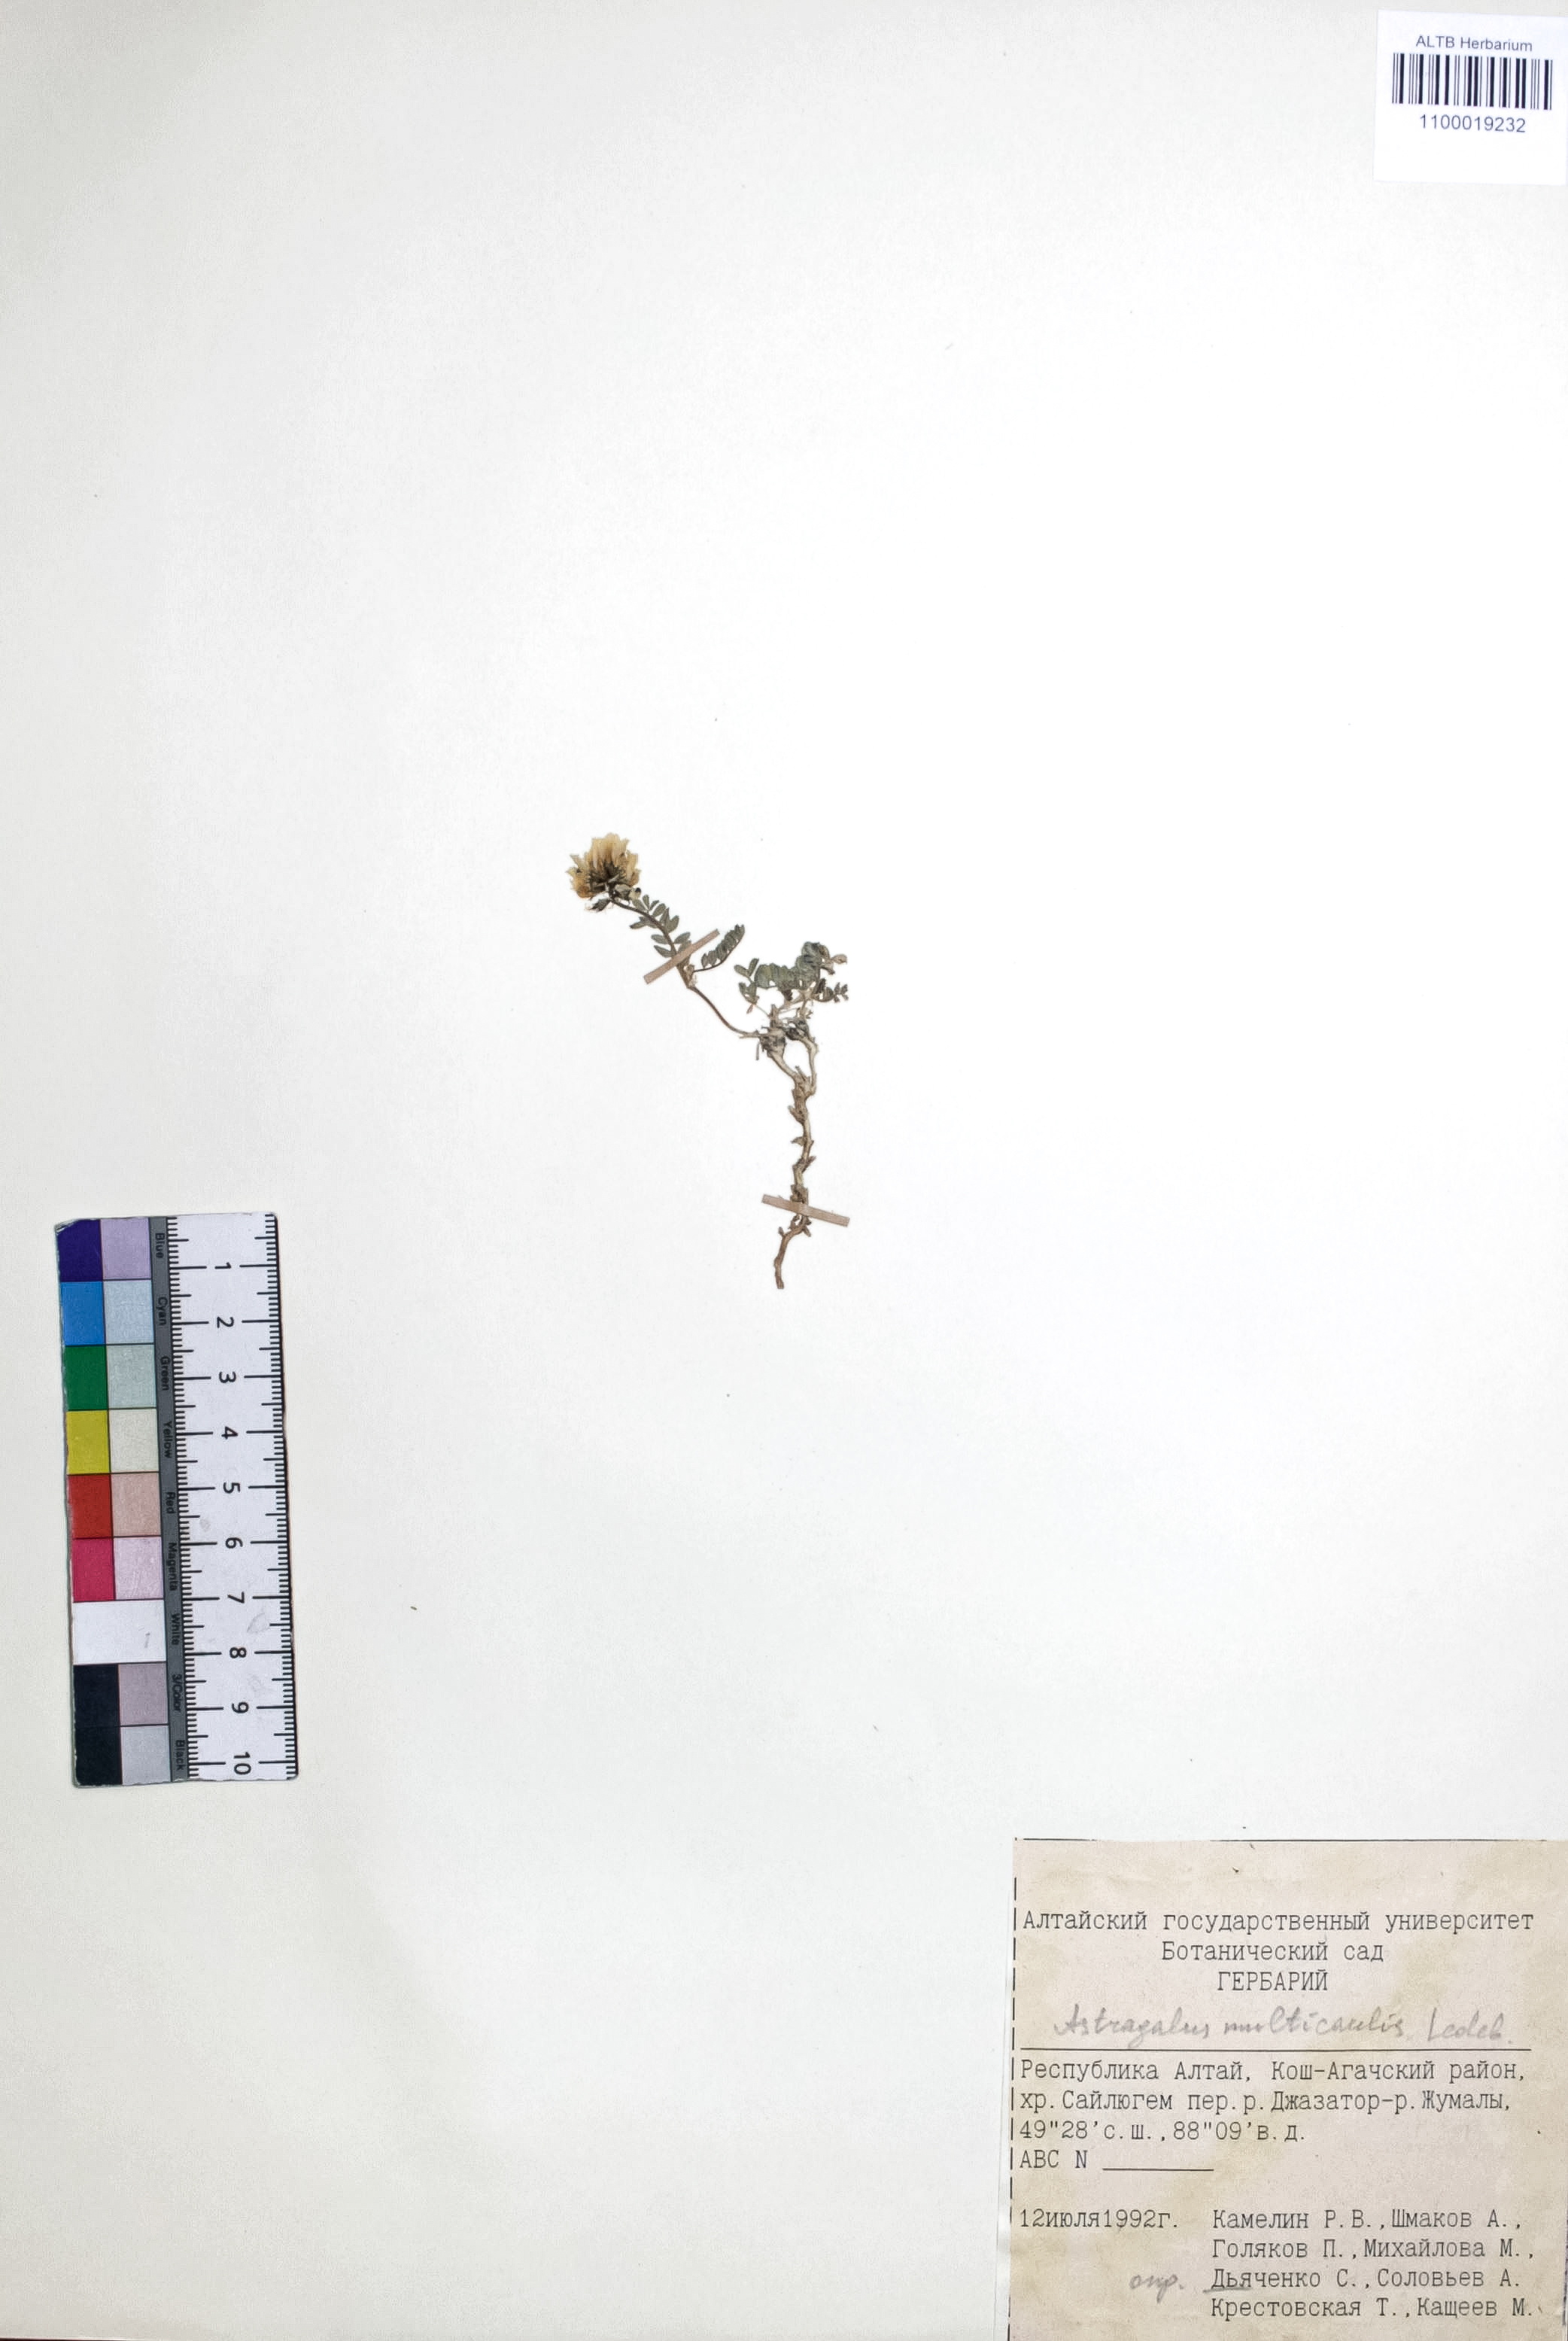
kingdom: Plantae
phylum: Tracheophyta
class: Magnoliopsida
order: Fabales
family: Fabaceae
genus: Astragalus
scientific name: Astragalus leptostachys
